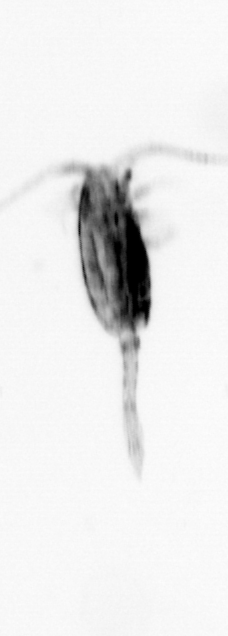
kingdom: Animalia
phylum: Arthropoda
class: Copepoda
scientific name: Copepoda
